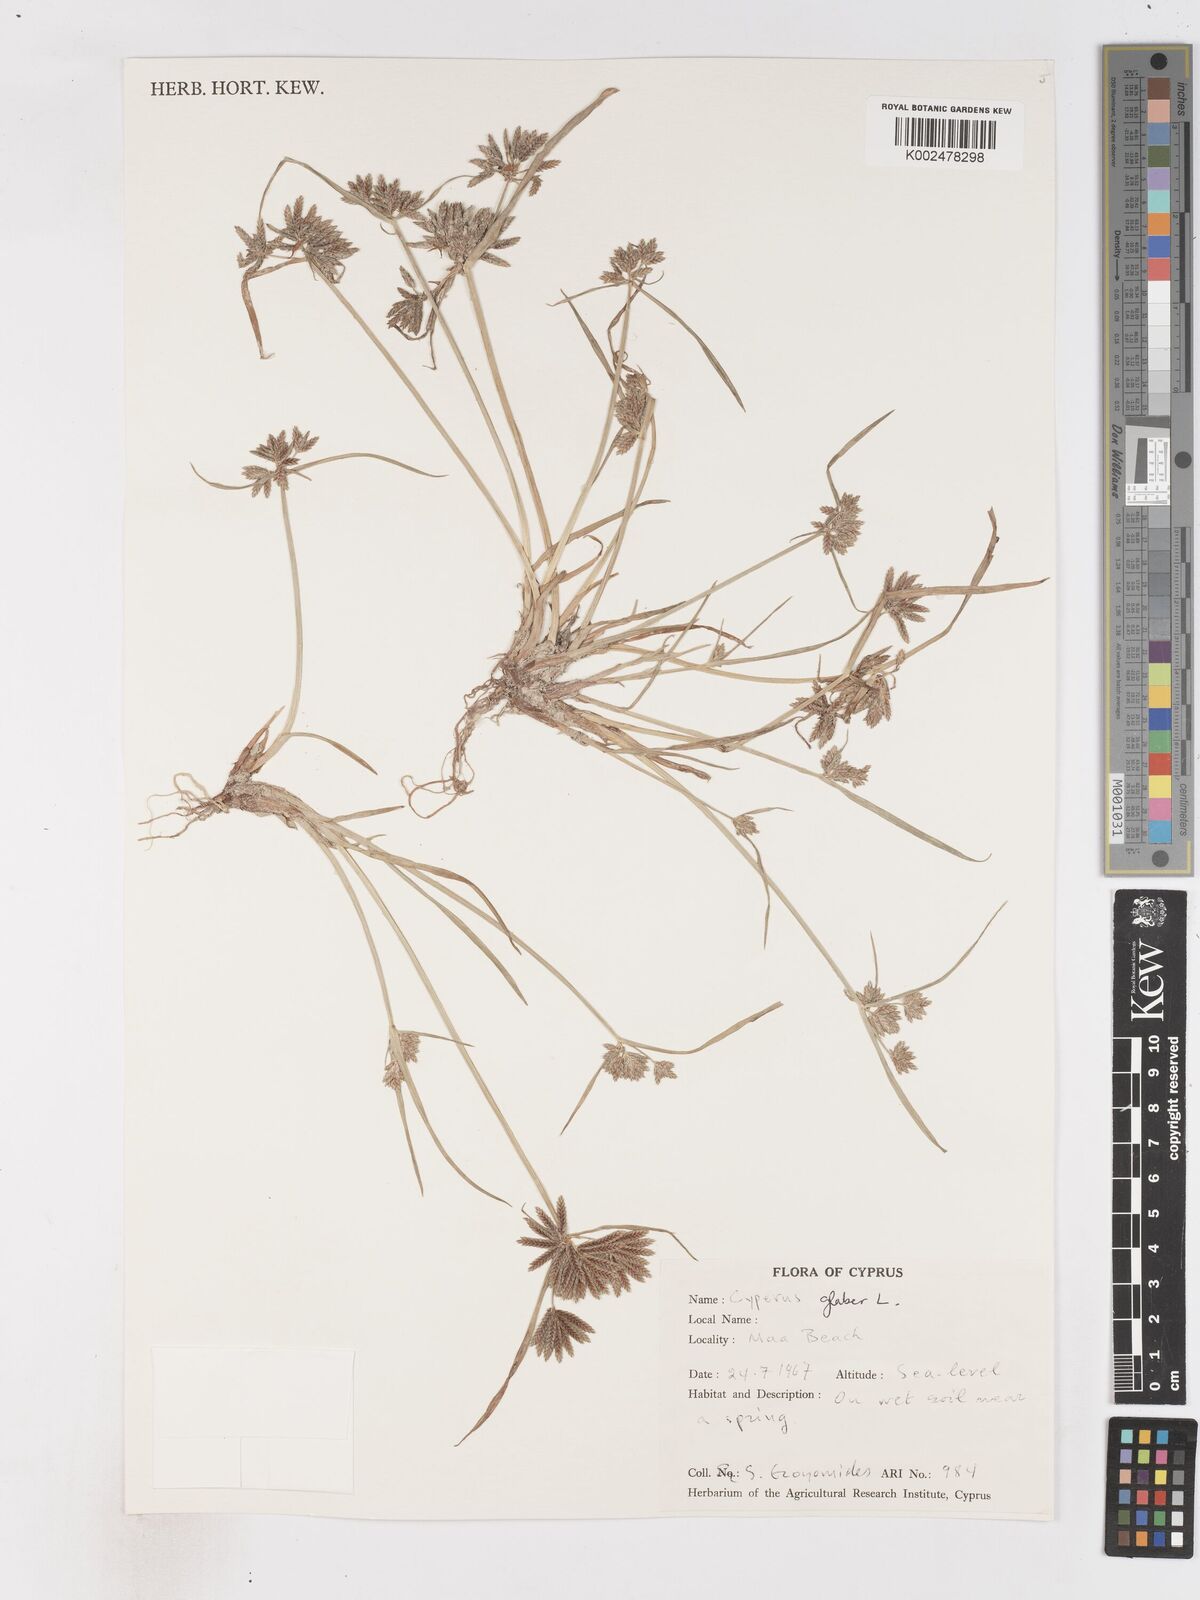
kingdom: Plantae
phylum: Tracheophyta
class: Liliopsida
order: Poales
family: Cyperaceae
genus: Cyperus
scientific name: Cyperus glaber
